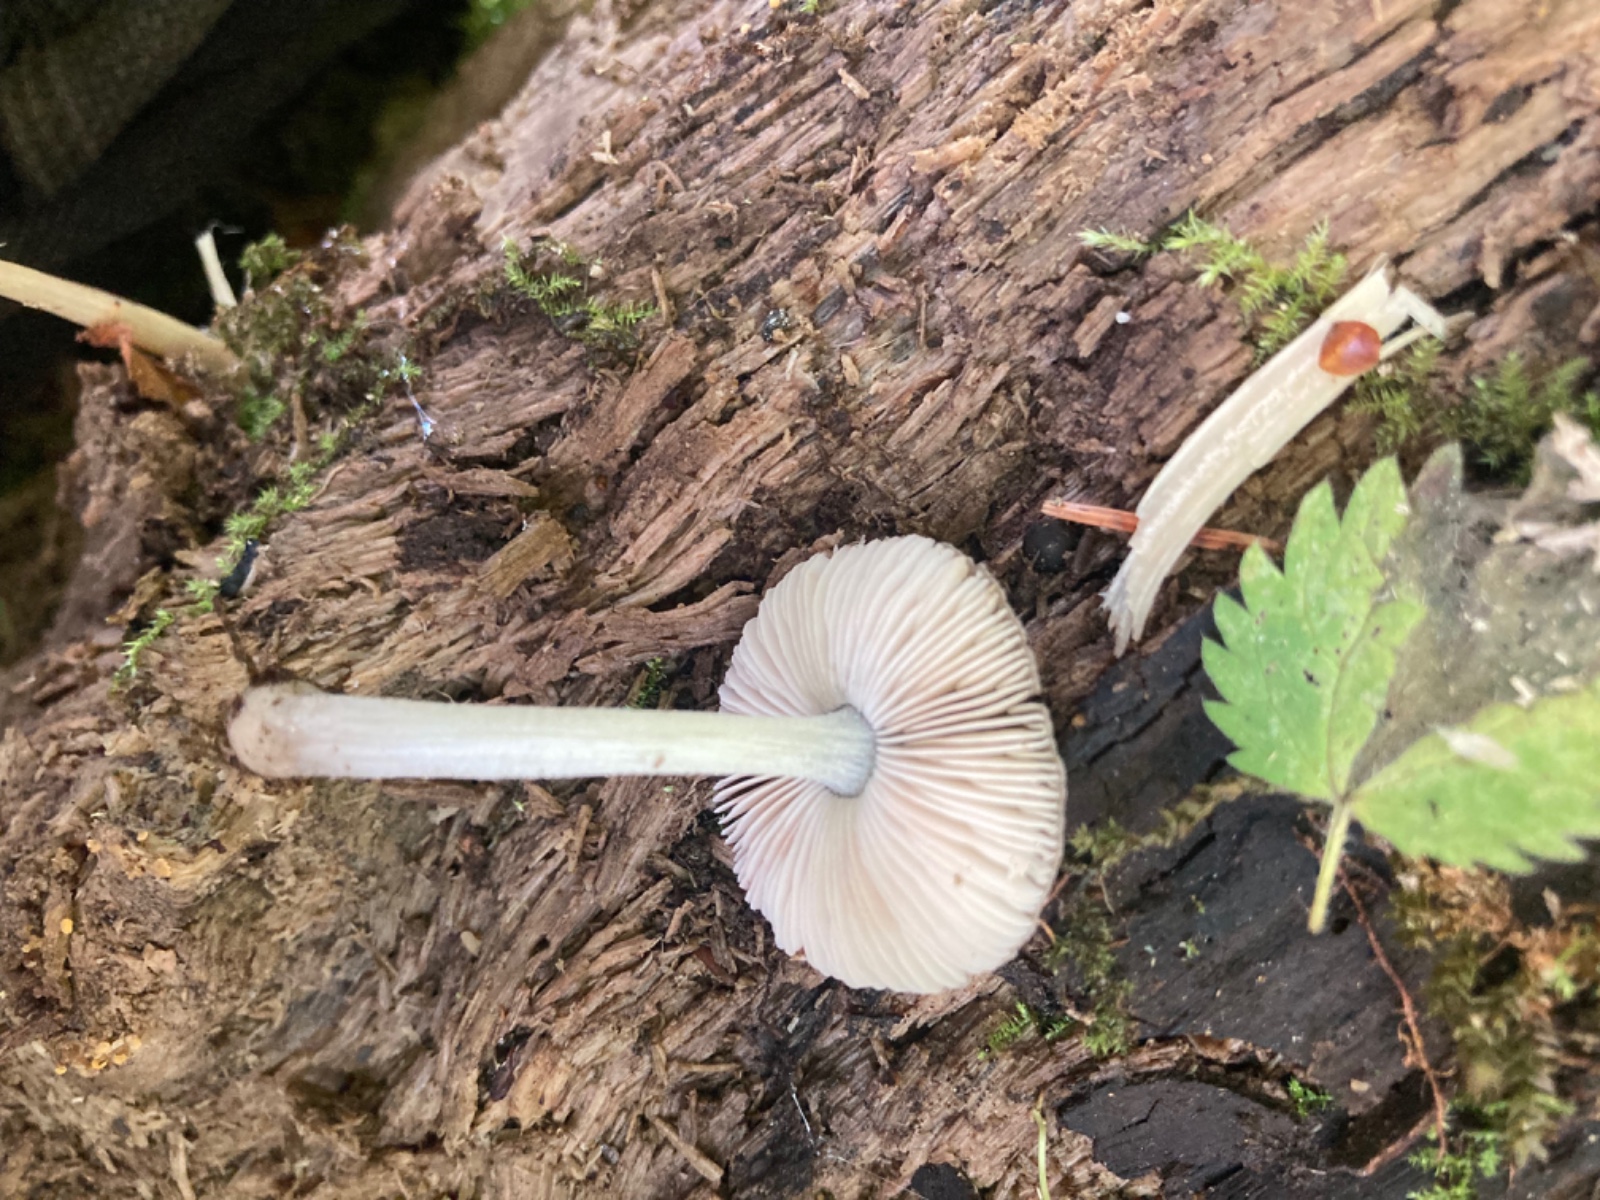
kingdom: Fungi
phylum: Basidiomycota
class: Agaricomycetes
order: Agaricales
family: Pluteaceae
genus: Pluteus
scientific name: Pluteus
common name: gråstokket skærmhat
